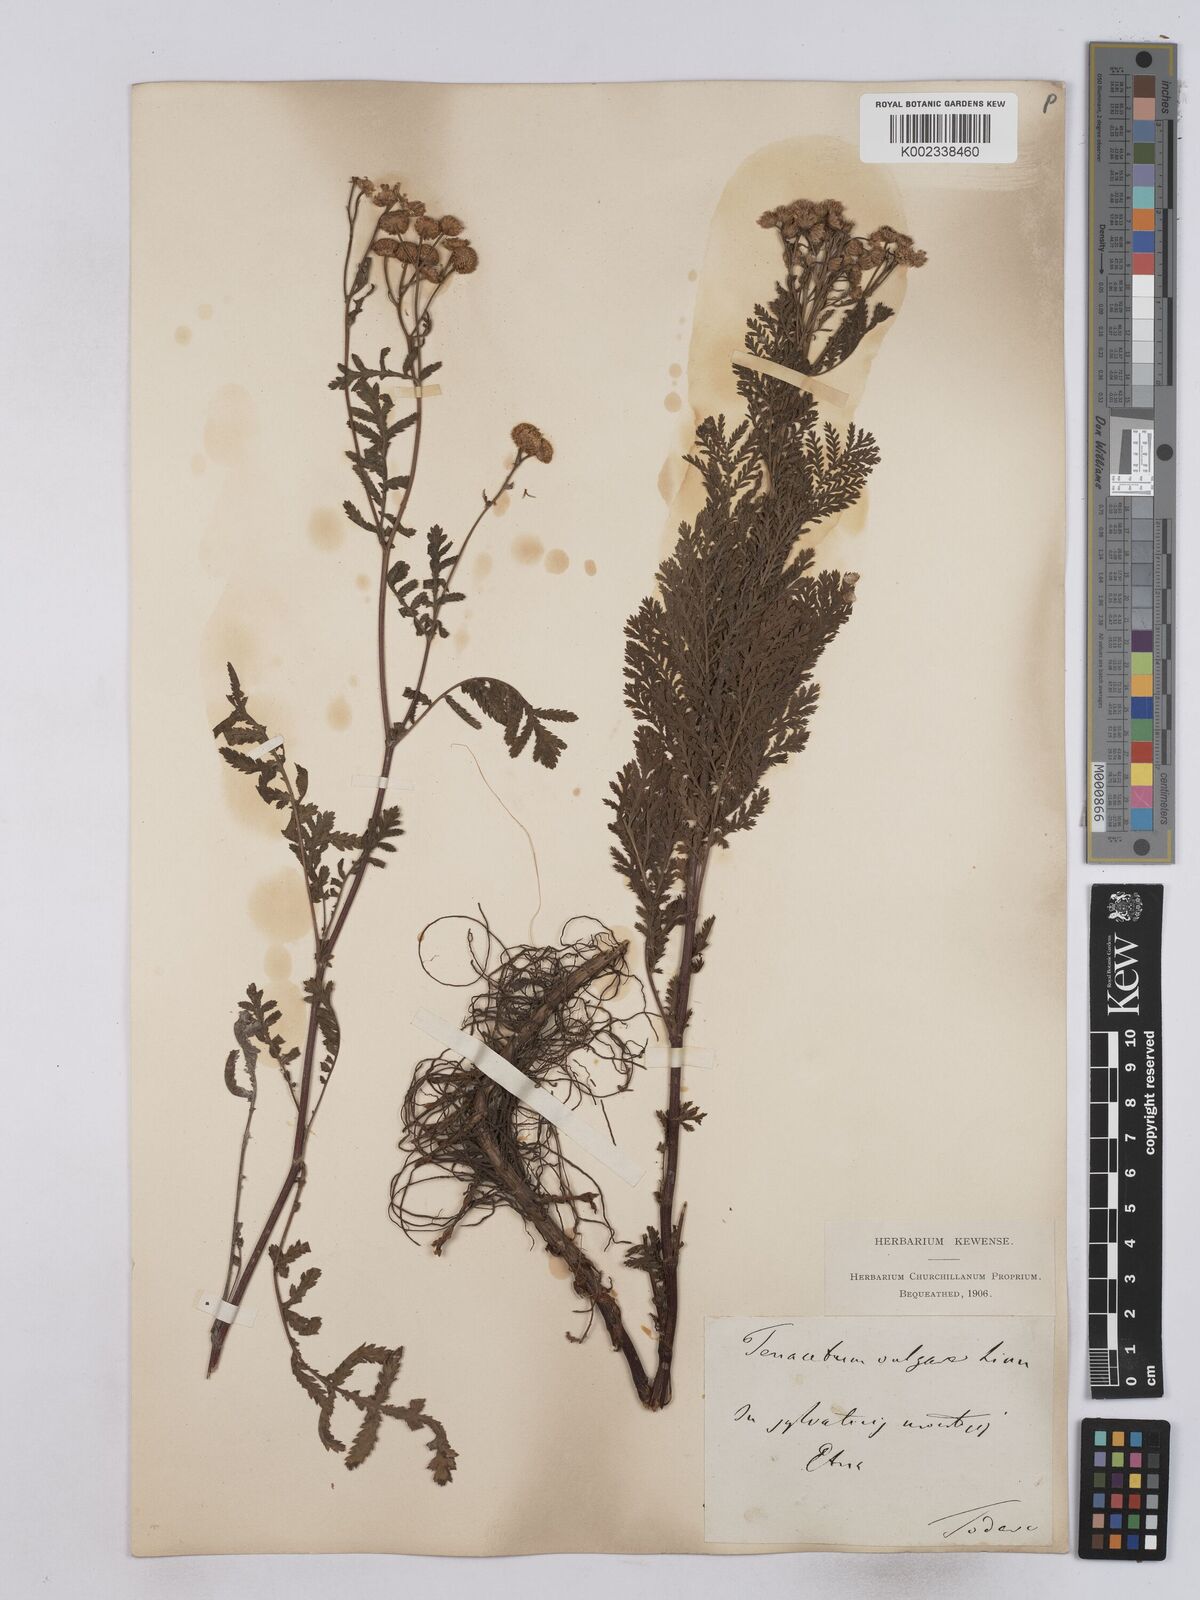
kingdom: Plantae
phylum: Tracheophyta
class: Magnoliopsida
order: Asterales
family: Asteraceae
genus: Tanacetum
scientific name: Tanacetum vulgare
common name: Common tansy
